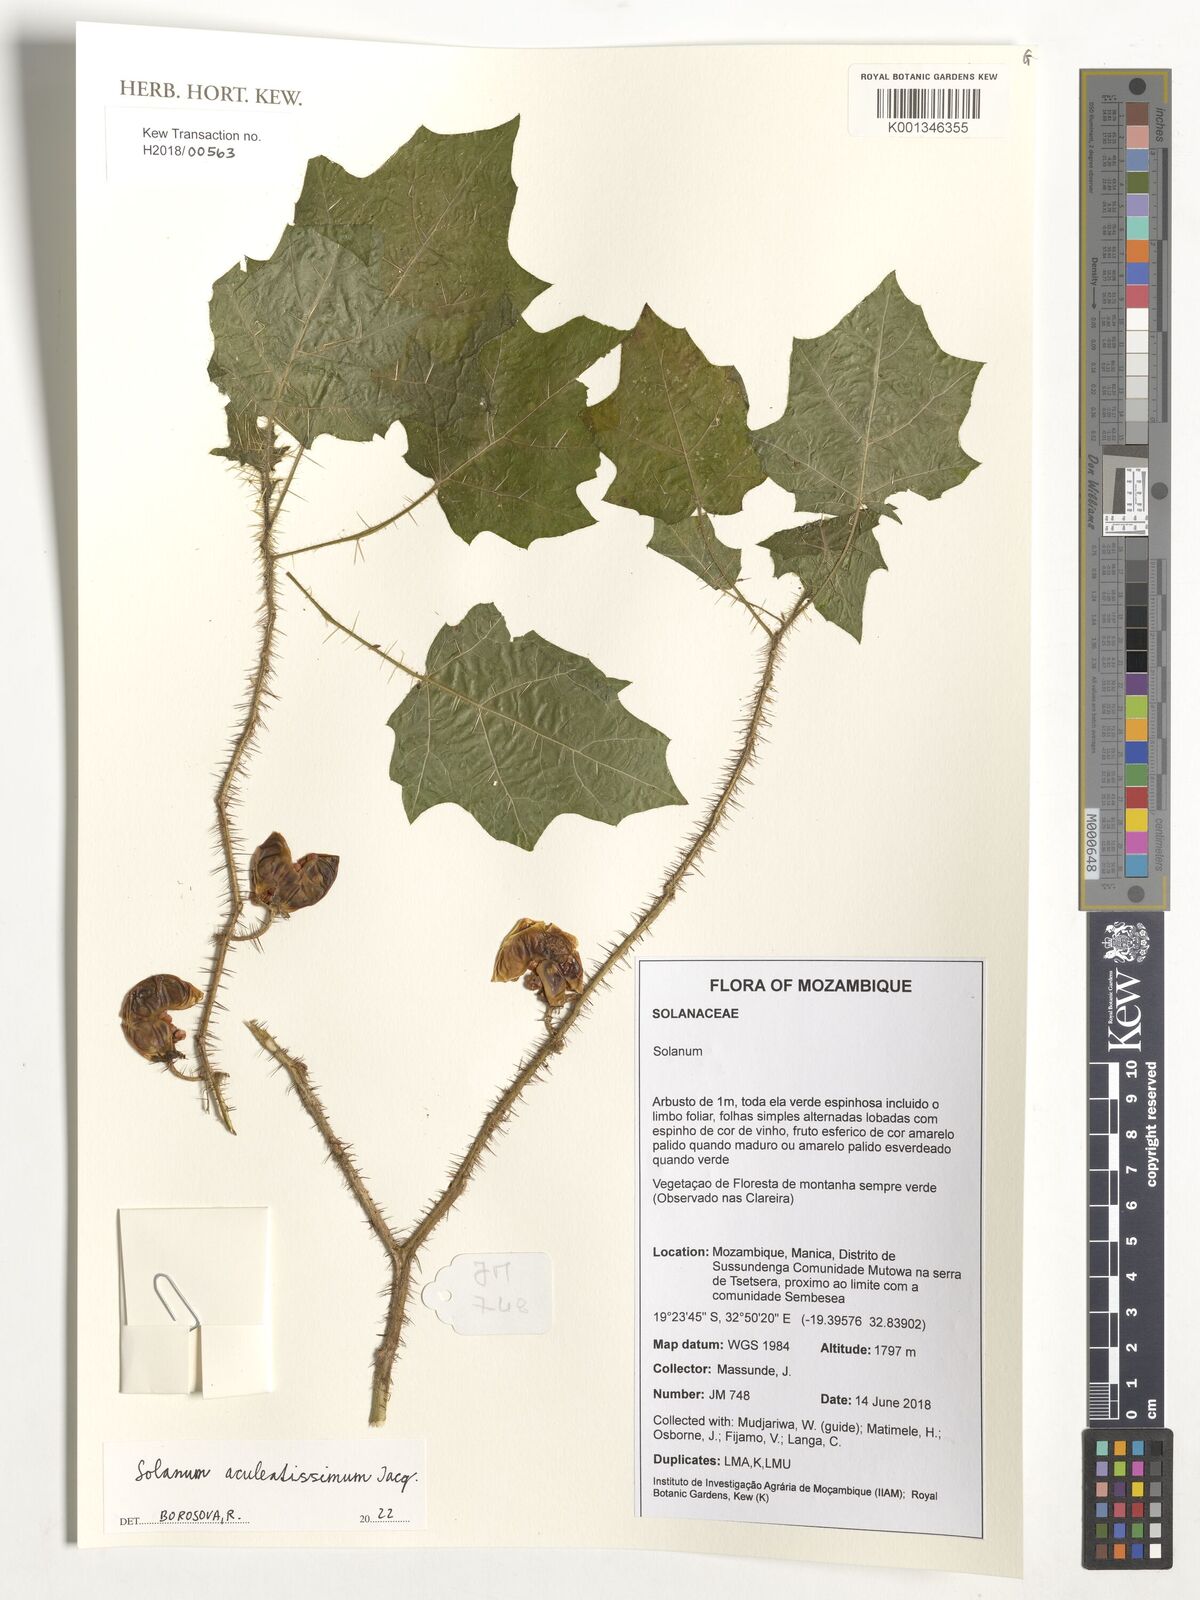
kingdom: Plantae
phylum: Tracheophyta
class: Magnoliopsida
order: Solanales
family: Solanaceae
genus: Solanum
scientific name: Solanum aculeatissimum
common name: Dutch eggplant
